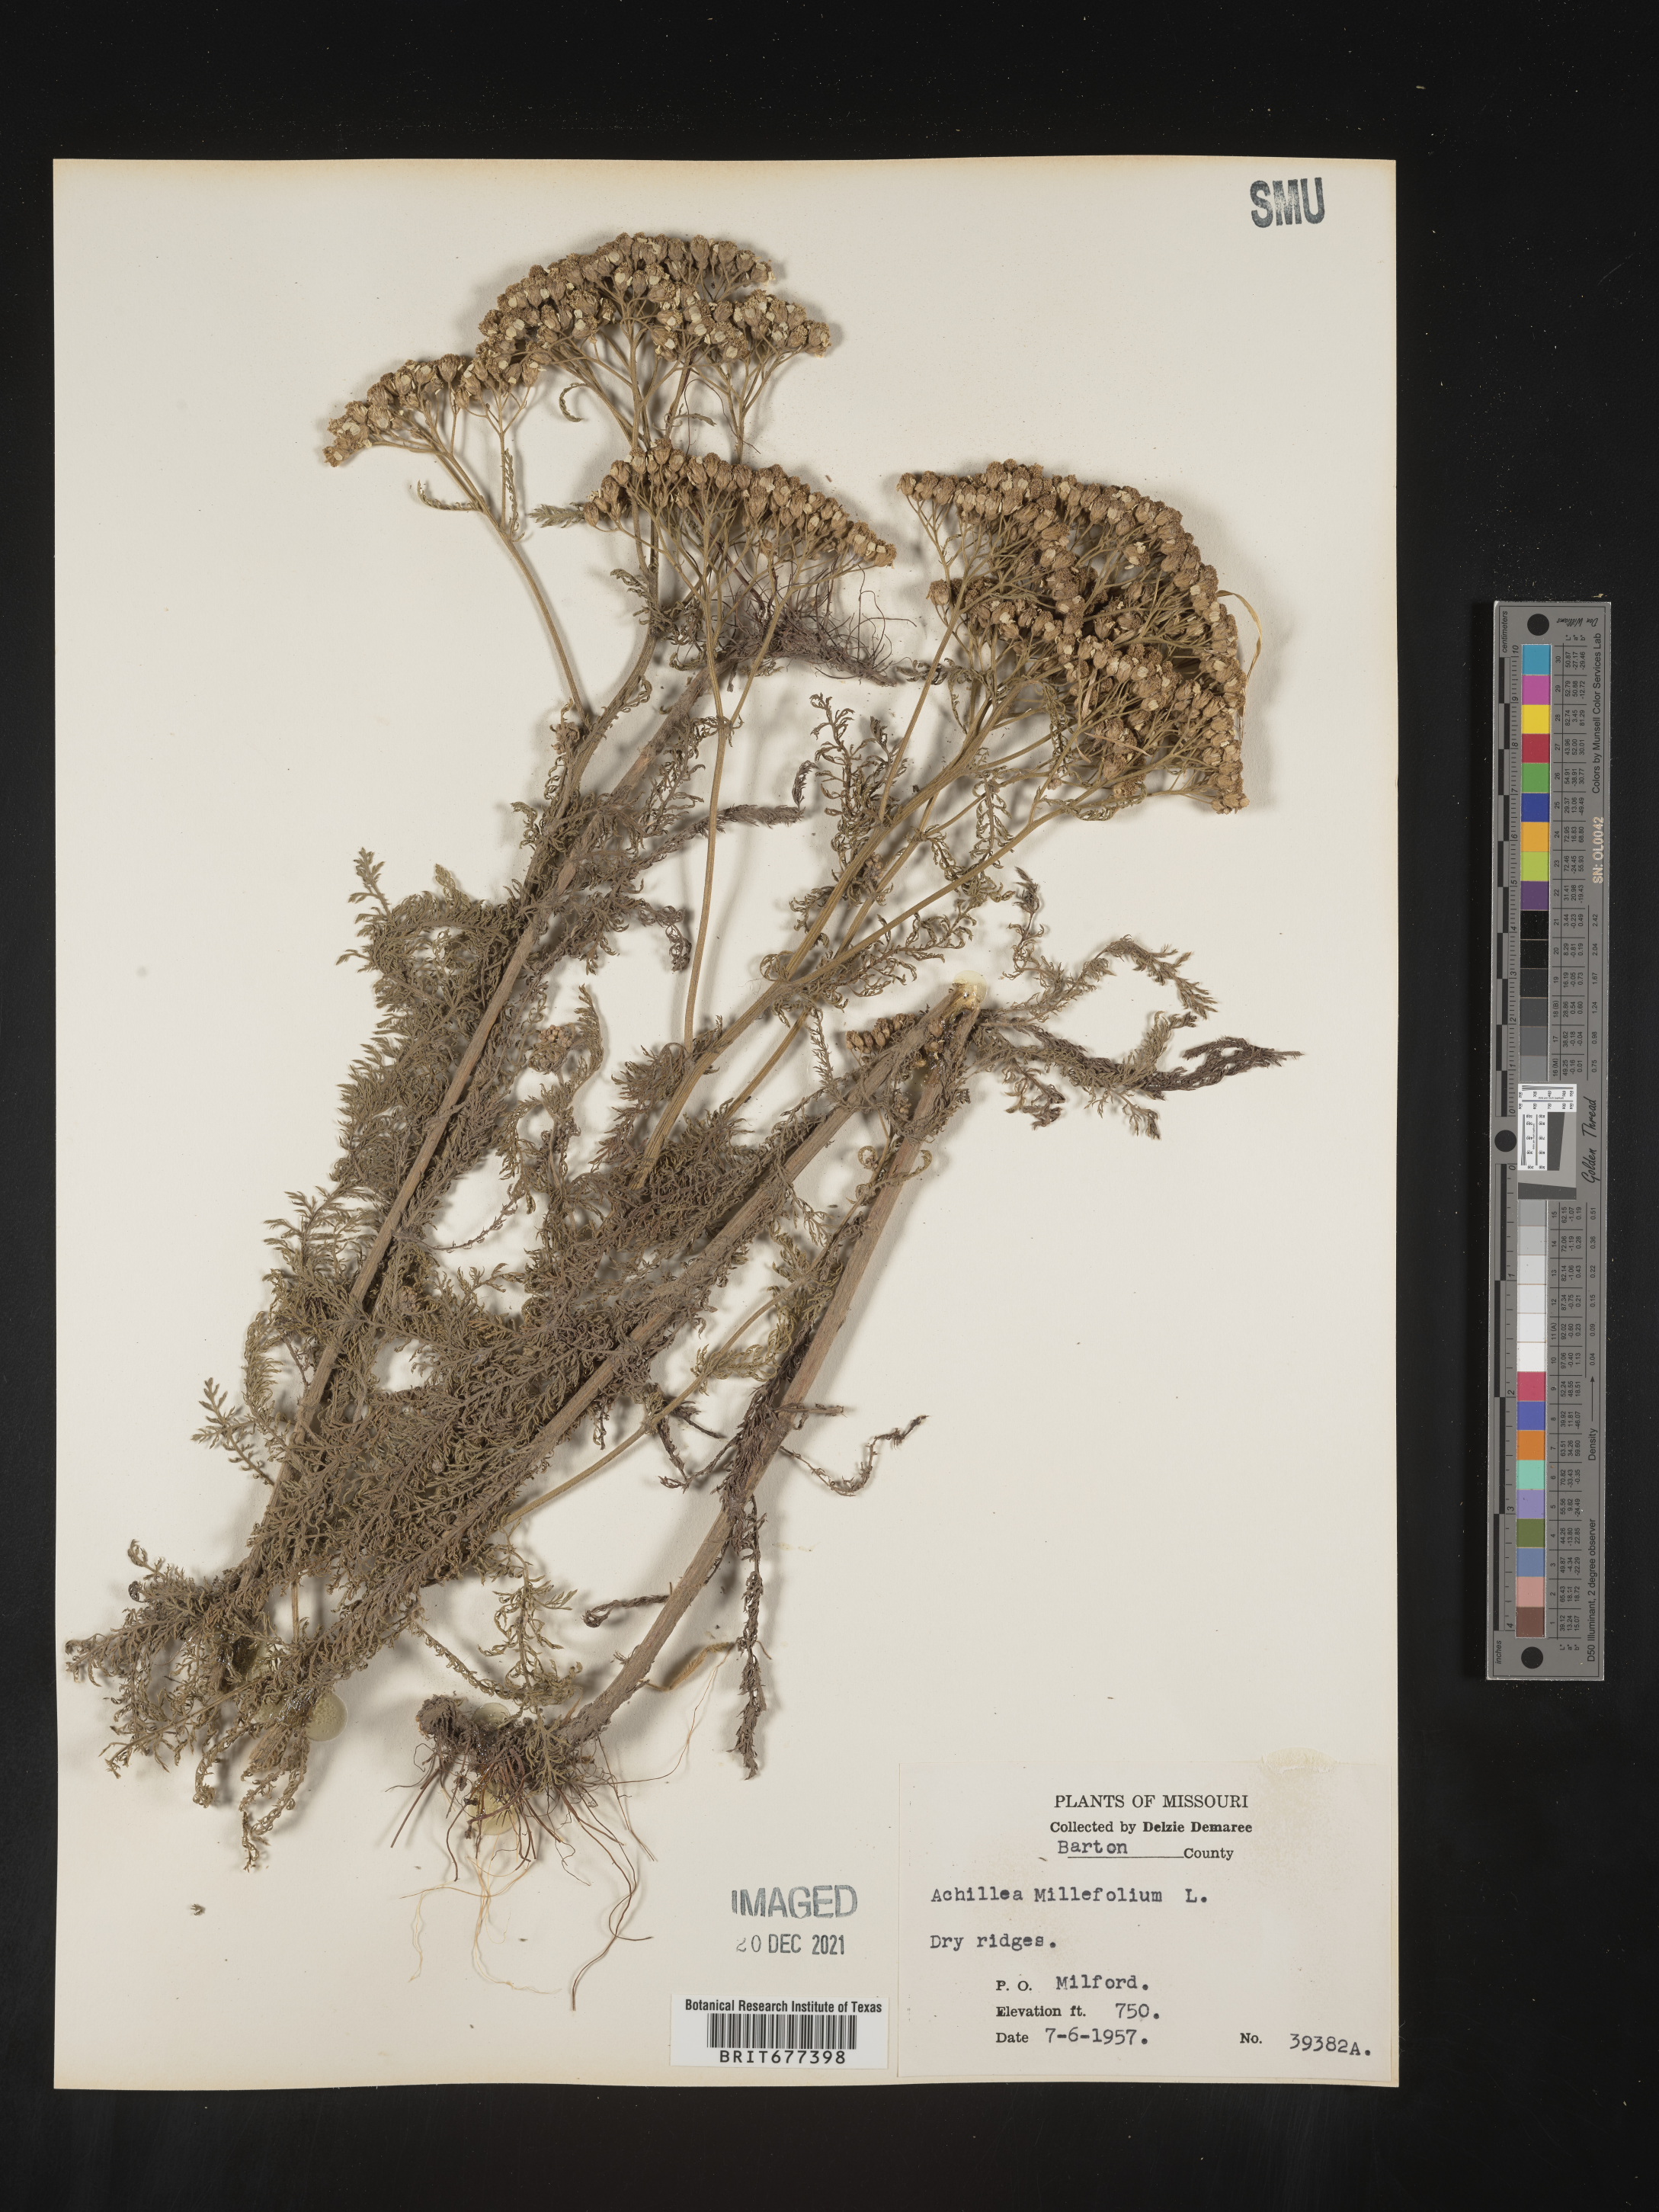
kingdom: Plantae
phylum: Tracheophyta
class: Magnoliopsida
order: Asterales
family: Asteraceae
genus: Achillea
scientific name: Achillea millefolium
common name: Yarrow
